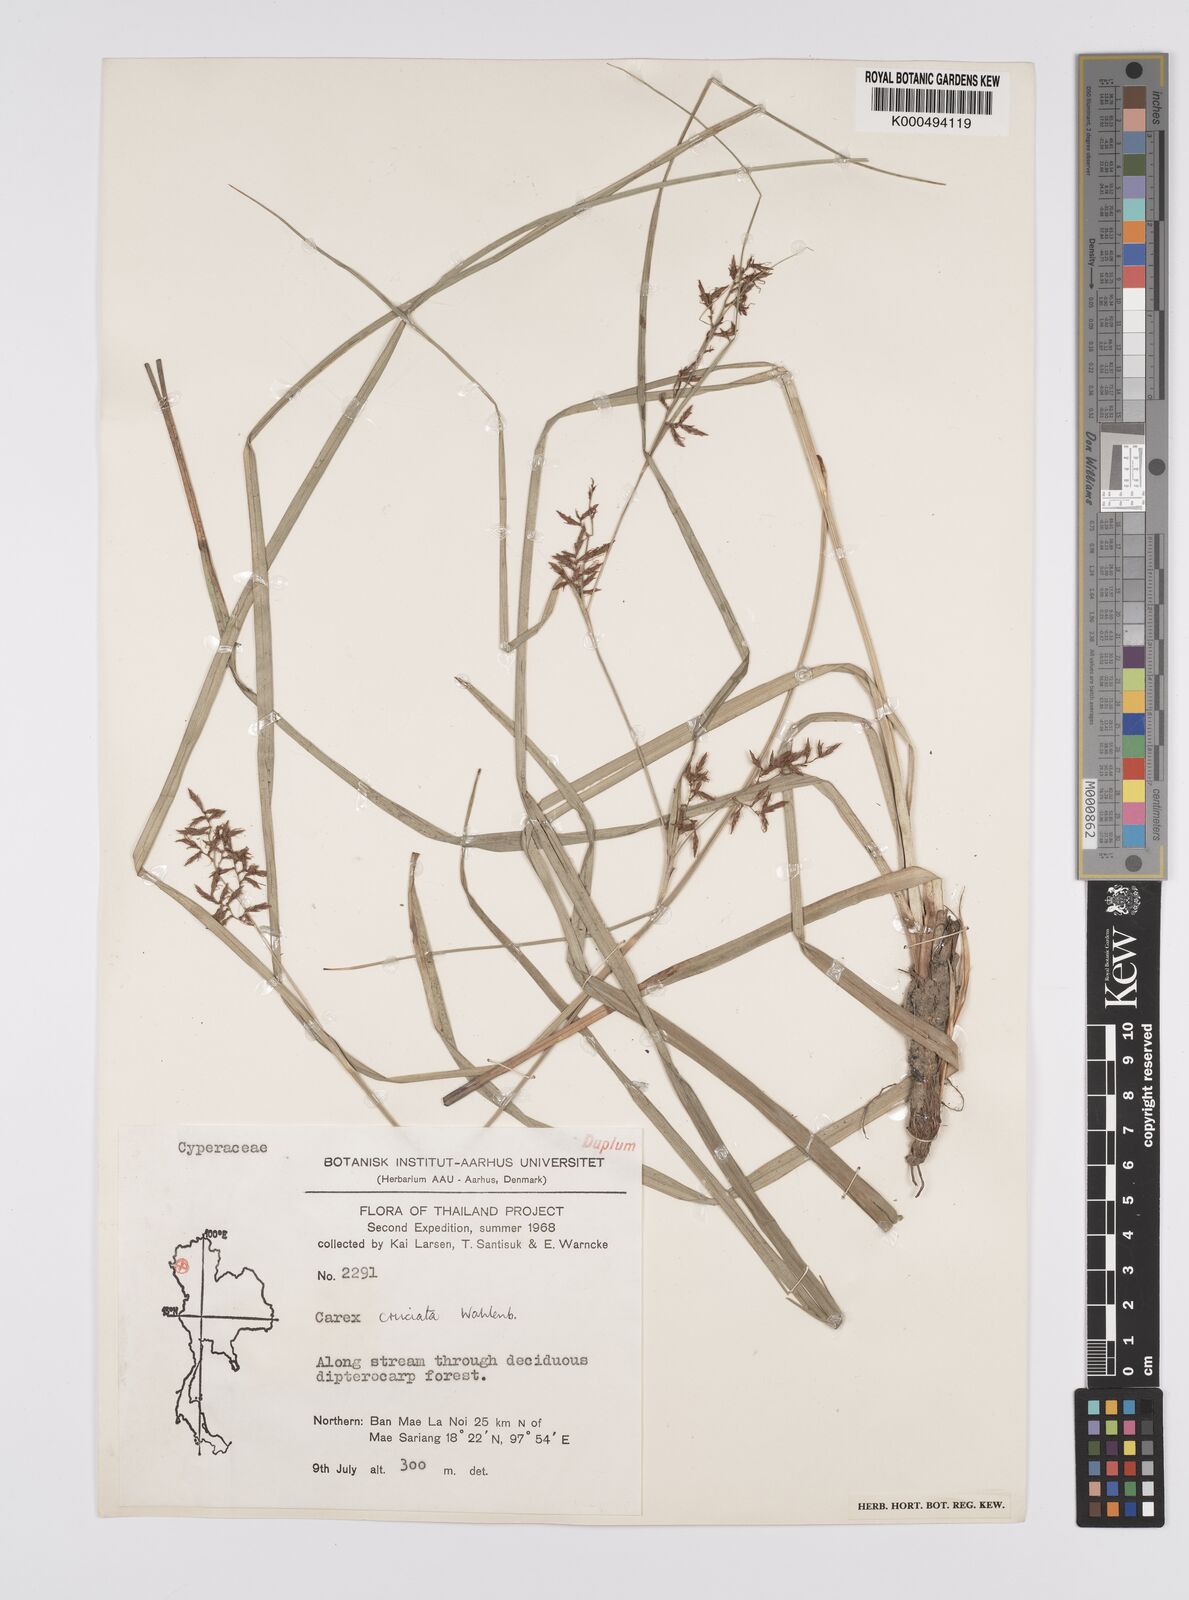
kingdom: Plantae
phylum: Tracheophyta
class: Liliopsida
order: Poales
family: Cyperaceae
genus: Carex
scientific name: Carex cruciata
